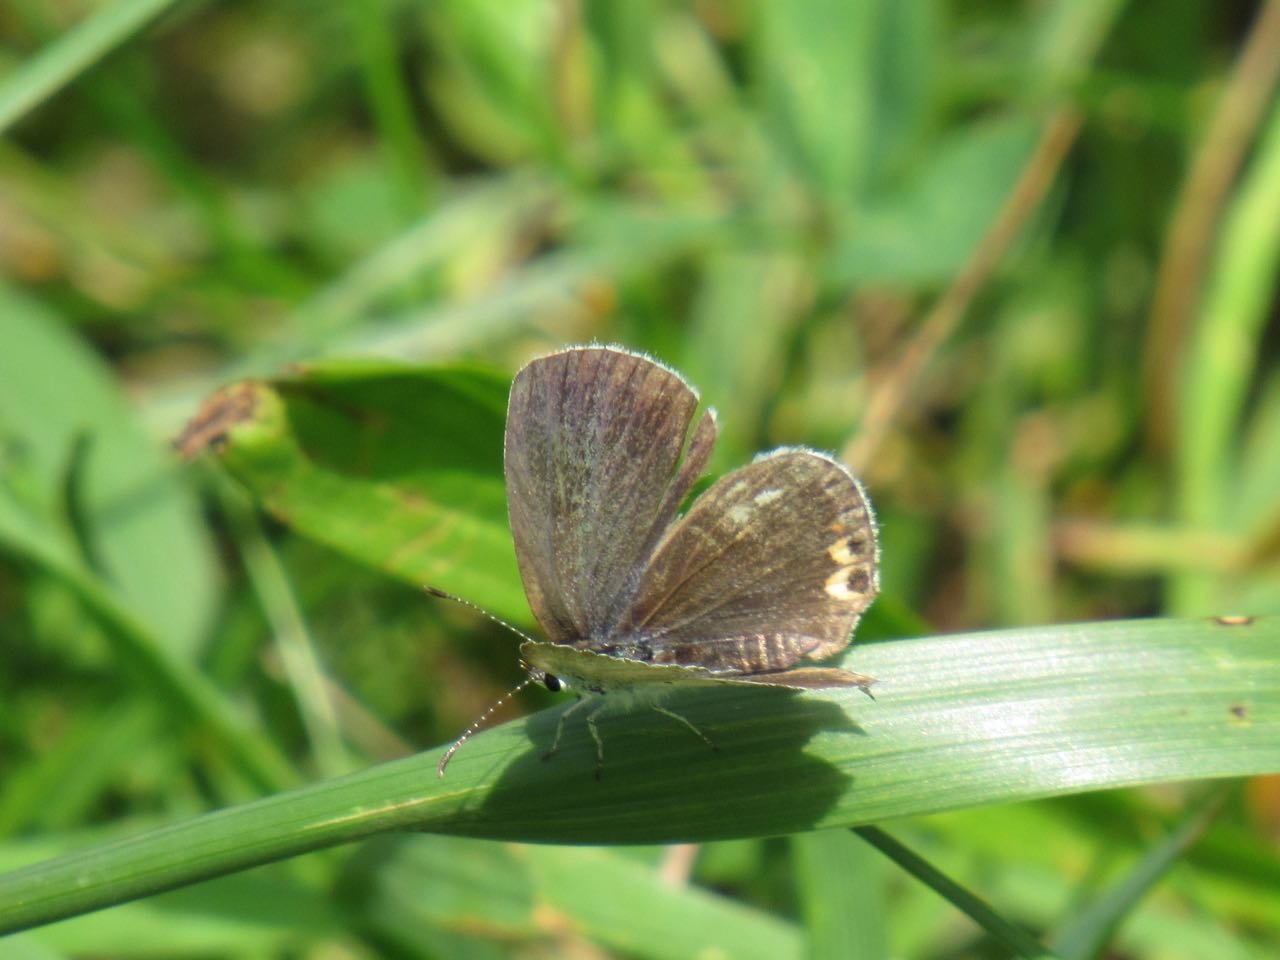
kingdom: Animalia
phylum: Arthropoda
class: Insecta
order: Lepidoptera
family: Lycaenidae
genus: Elkalyce
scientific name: Elkalyce comyntas
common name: Eastern Tailed-Blue
